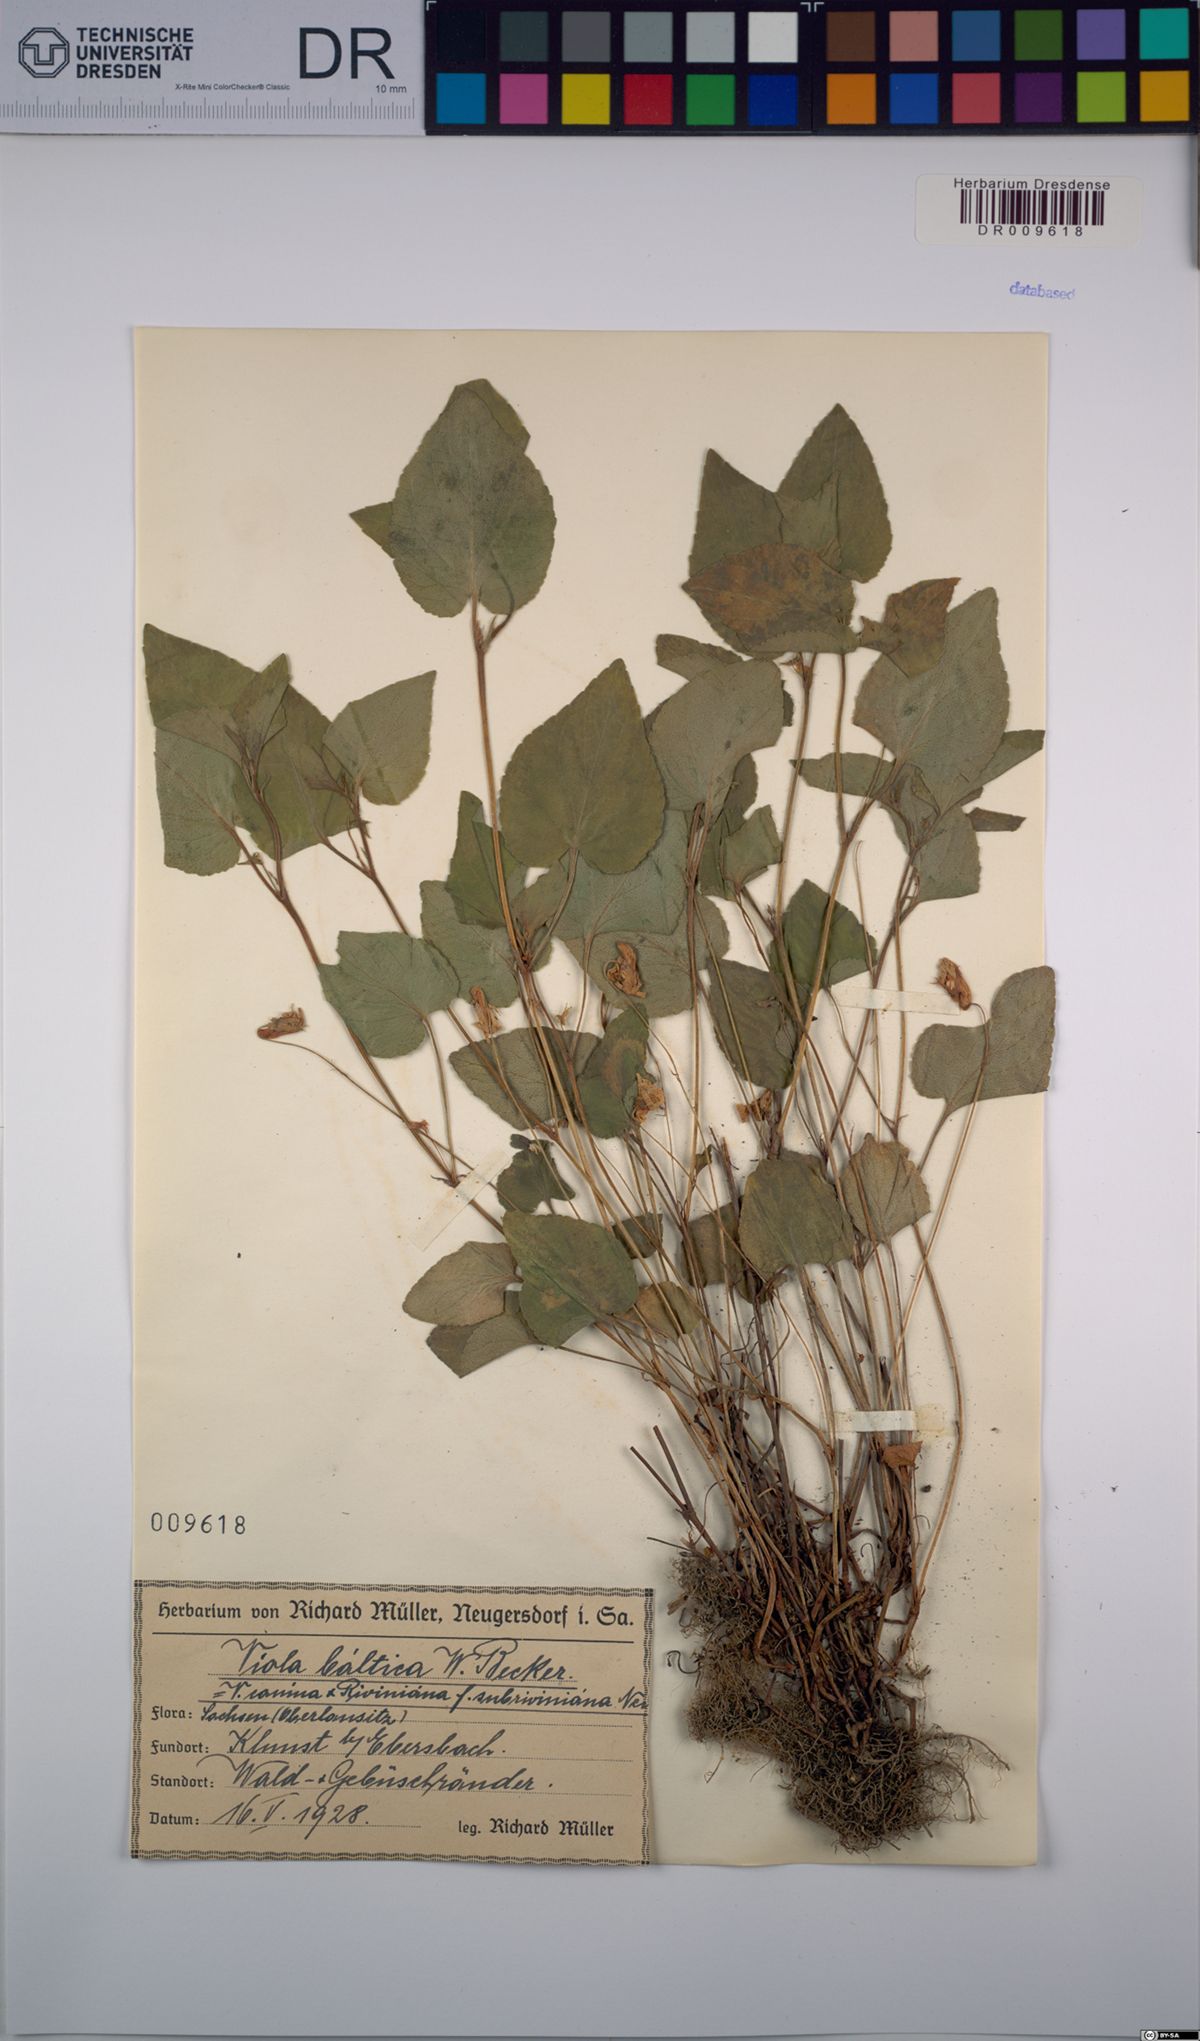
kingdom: Plantae
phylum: Tracheophyta
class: Magnoliopsida
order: Malpighiales
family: Violaceae
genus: Viola
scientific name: Viola riviniana
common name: Common dog-violet
